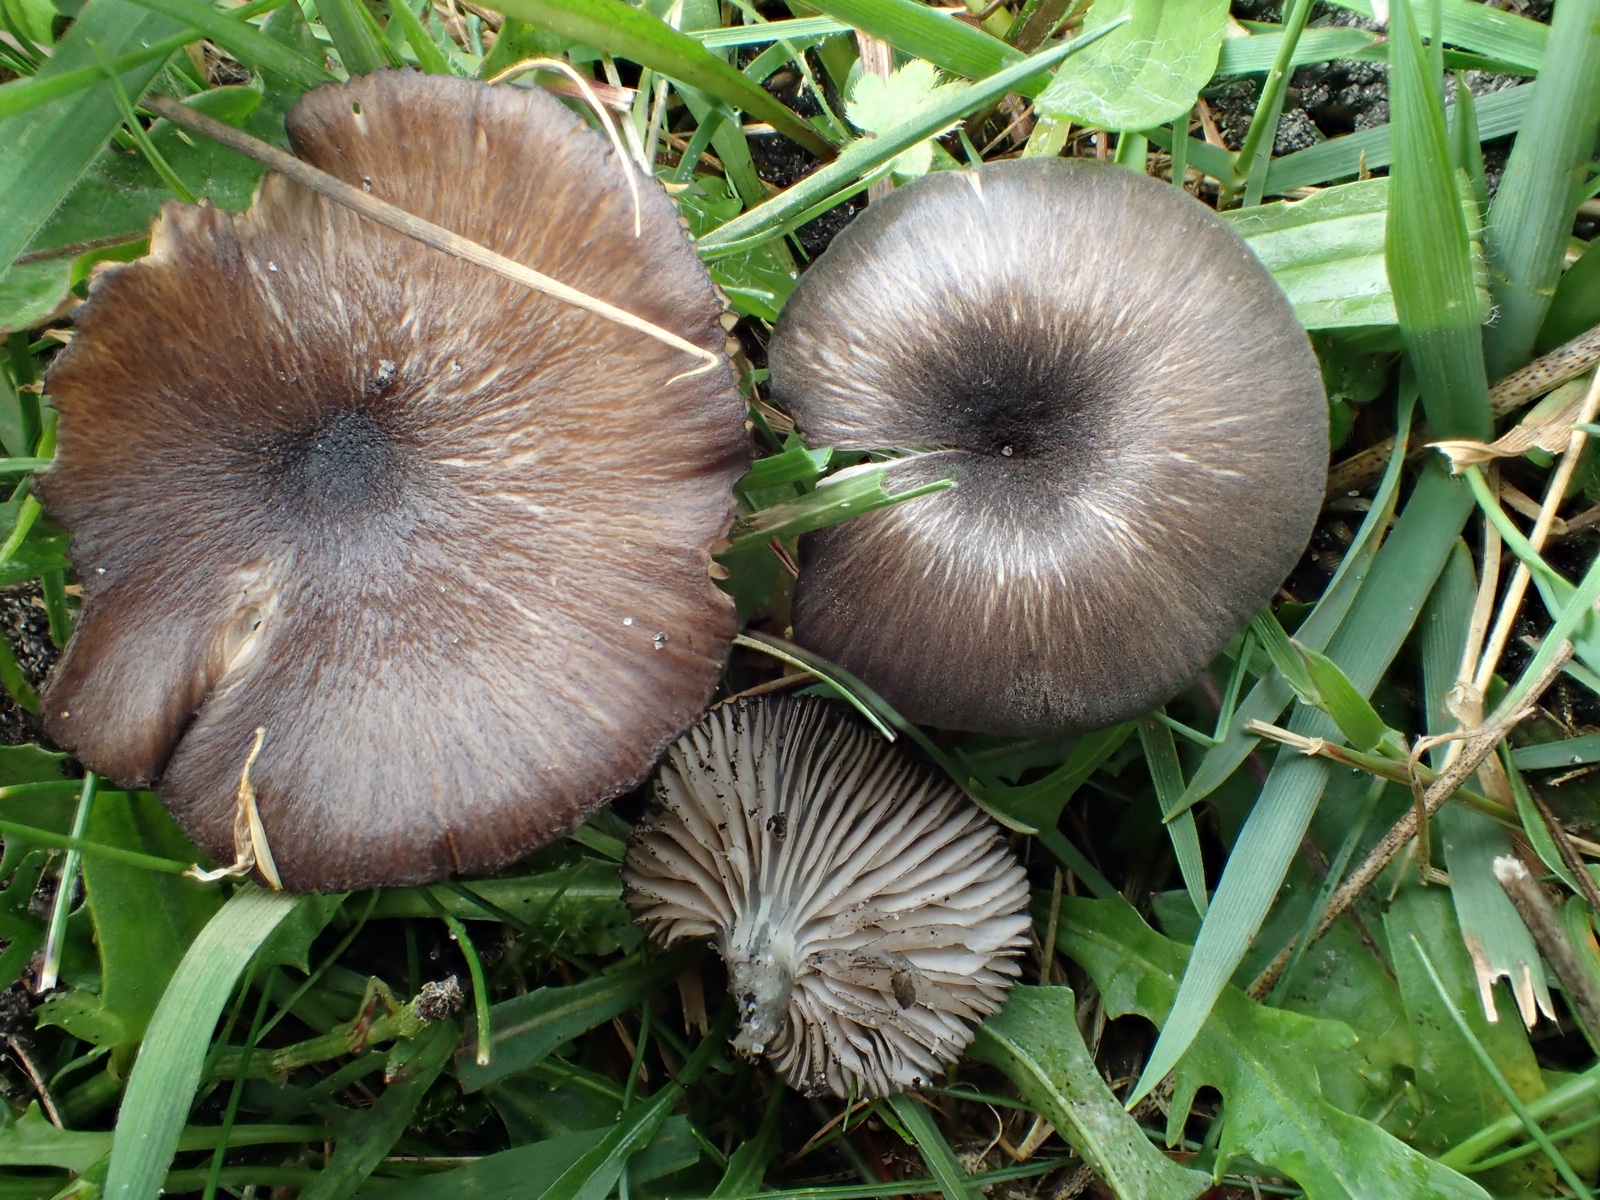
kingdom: Fungi
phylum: Basidiomycota
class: Agaricomycetes
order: Agaricales
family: Entolomataceae
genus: Entoloma
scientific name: Entoloma
